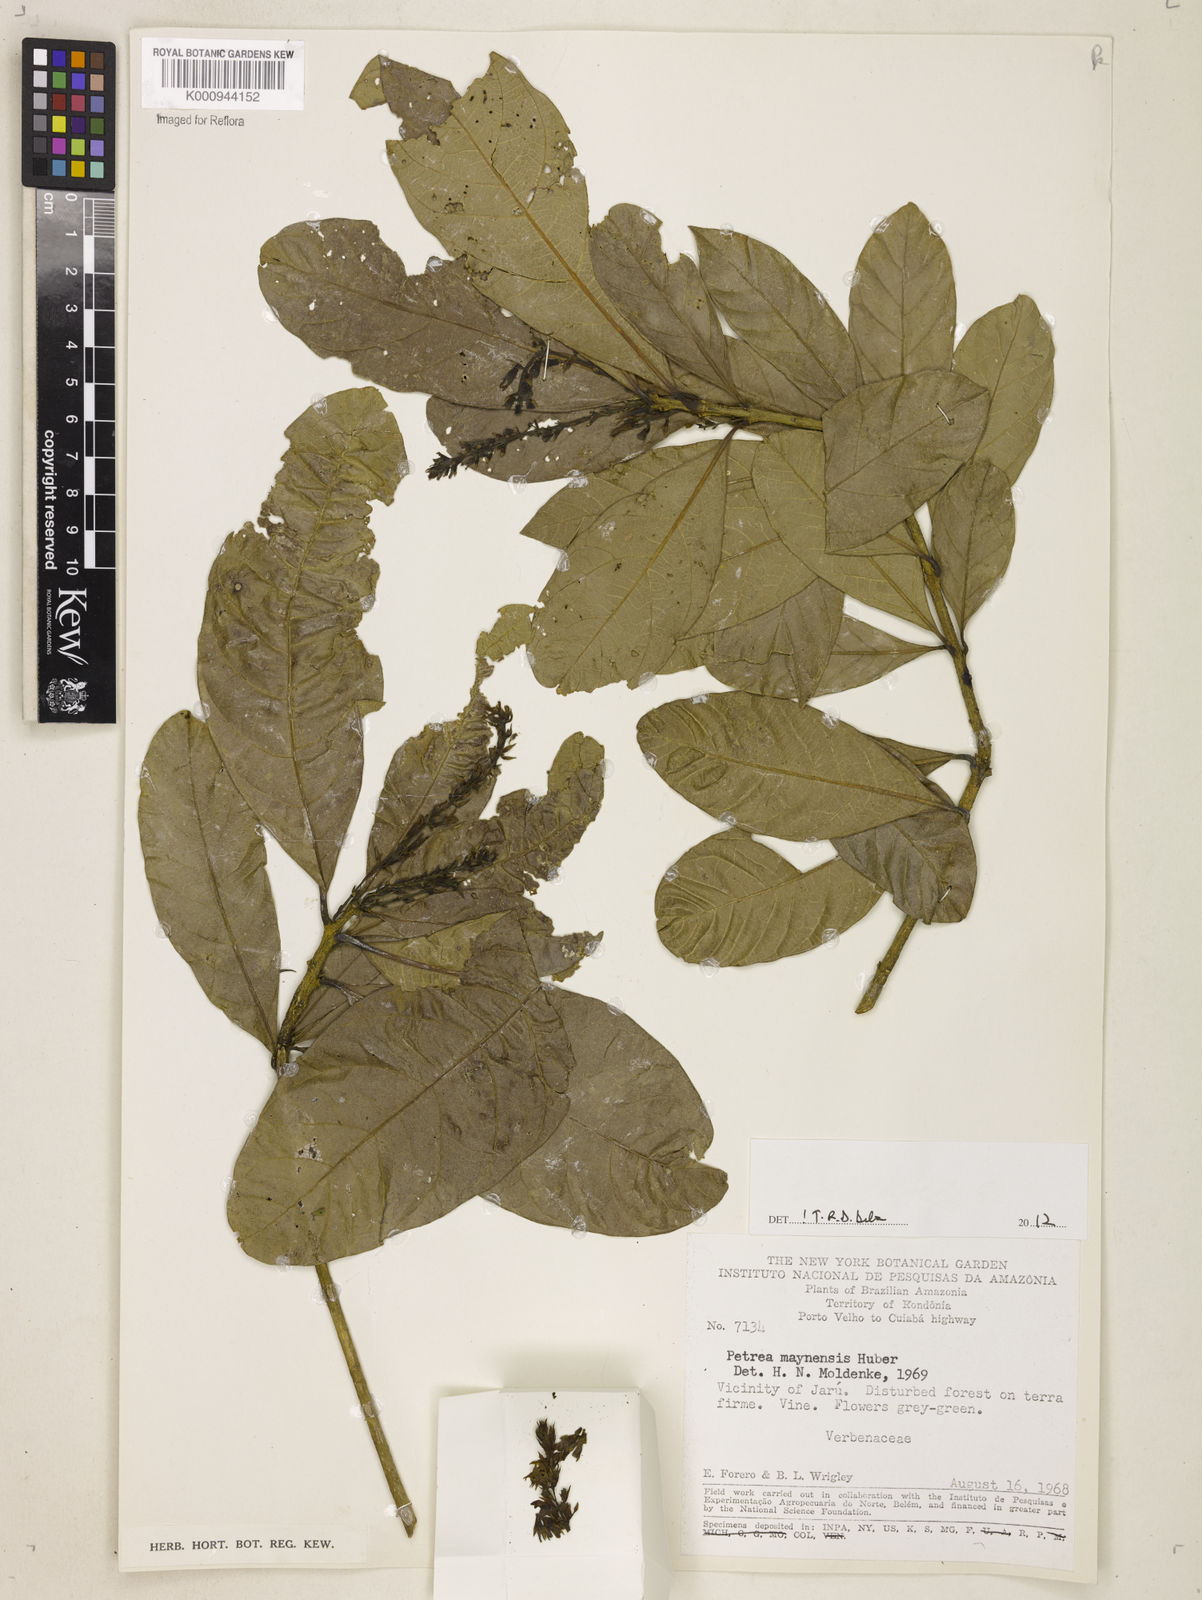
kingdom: Plantae
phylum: Tracheophyta
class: Magnoliopsida
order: Lamiales
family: Verbenaceae
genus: Petrea
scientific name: Petrea maynensis
